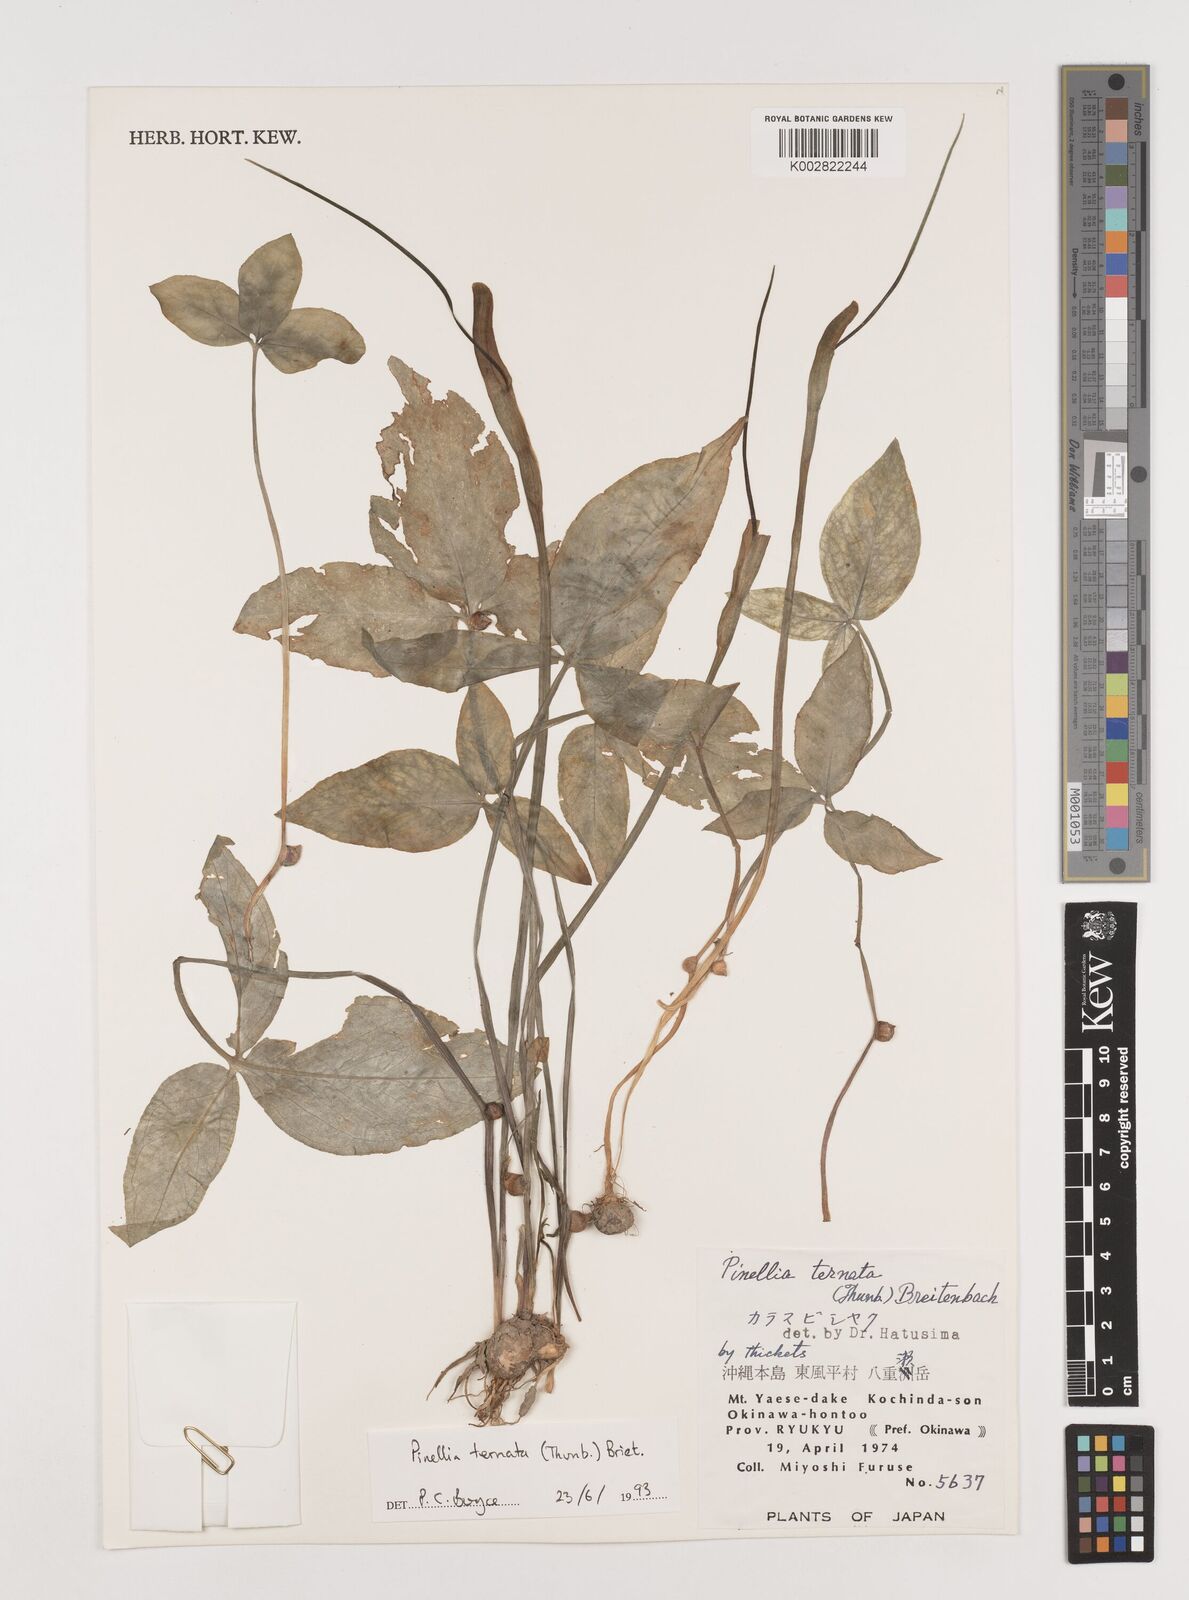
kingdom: Plantae
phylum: Tracheophyta
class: Liliopsida
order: Alismatales
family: Araceae
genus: Pinellia
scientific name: Pinellia ternata
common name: Pinellia
